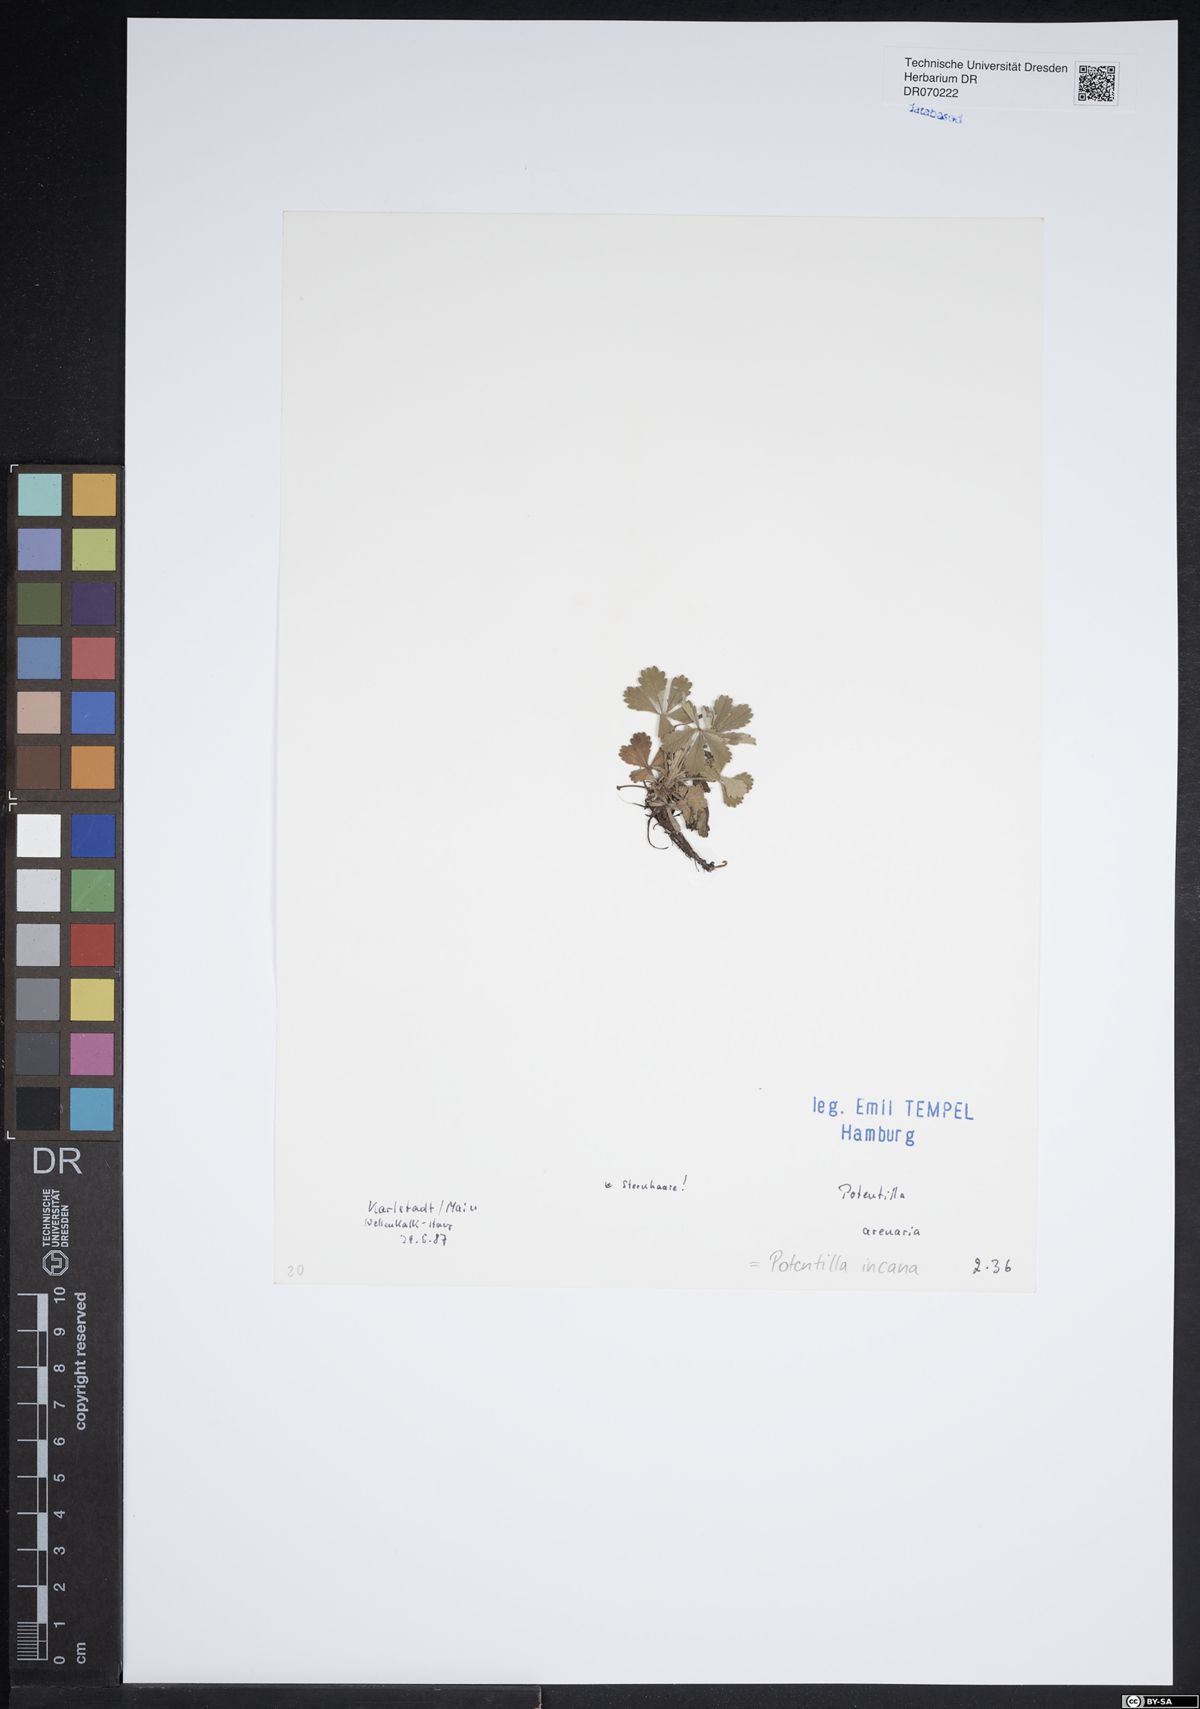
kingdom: Plantae
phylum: Tracheophyta
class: Magnoliopsida
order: Rosales
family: Rosaceae
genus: Potentilla
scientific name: Potentilla cinerea
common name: Ashy cinquefoil
